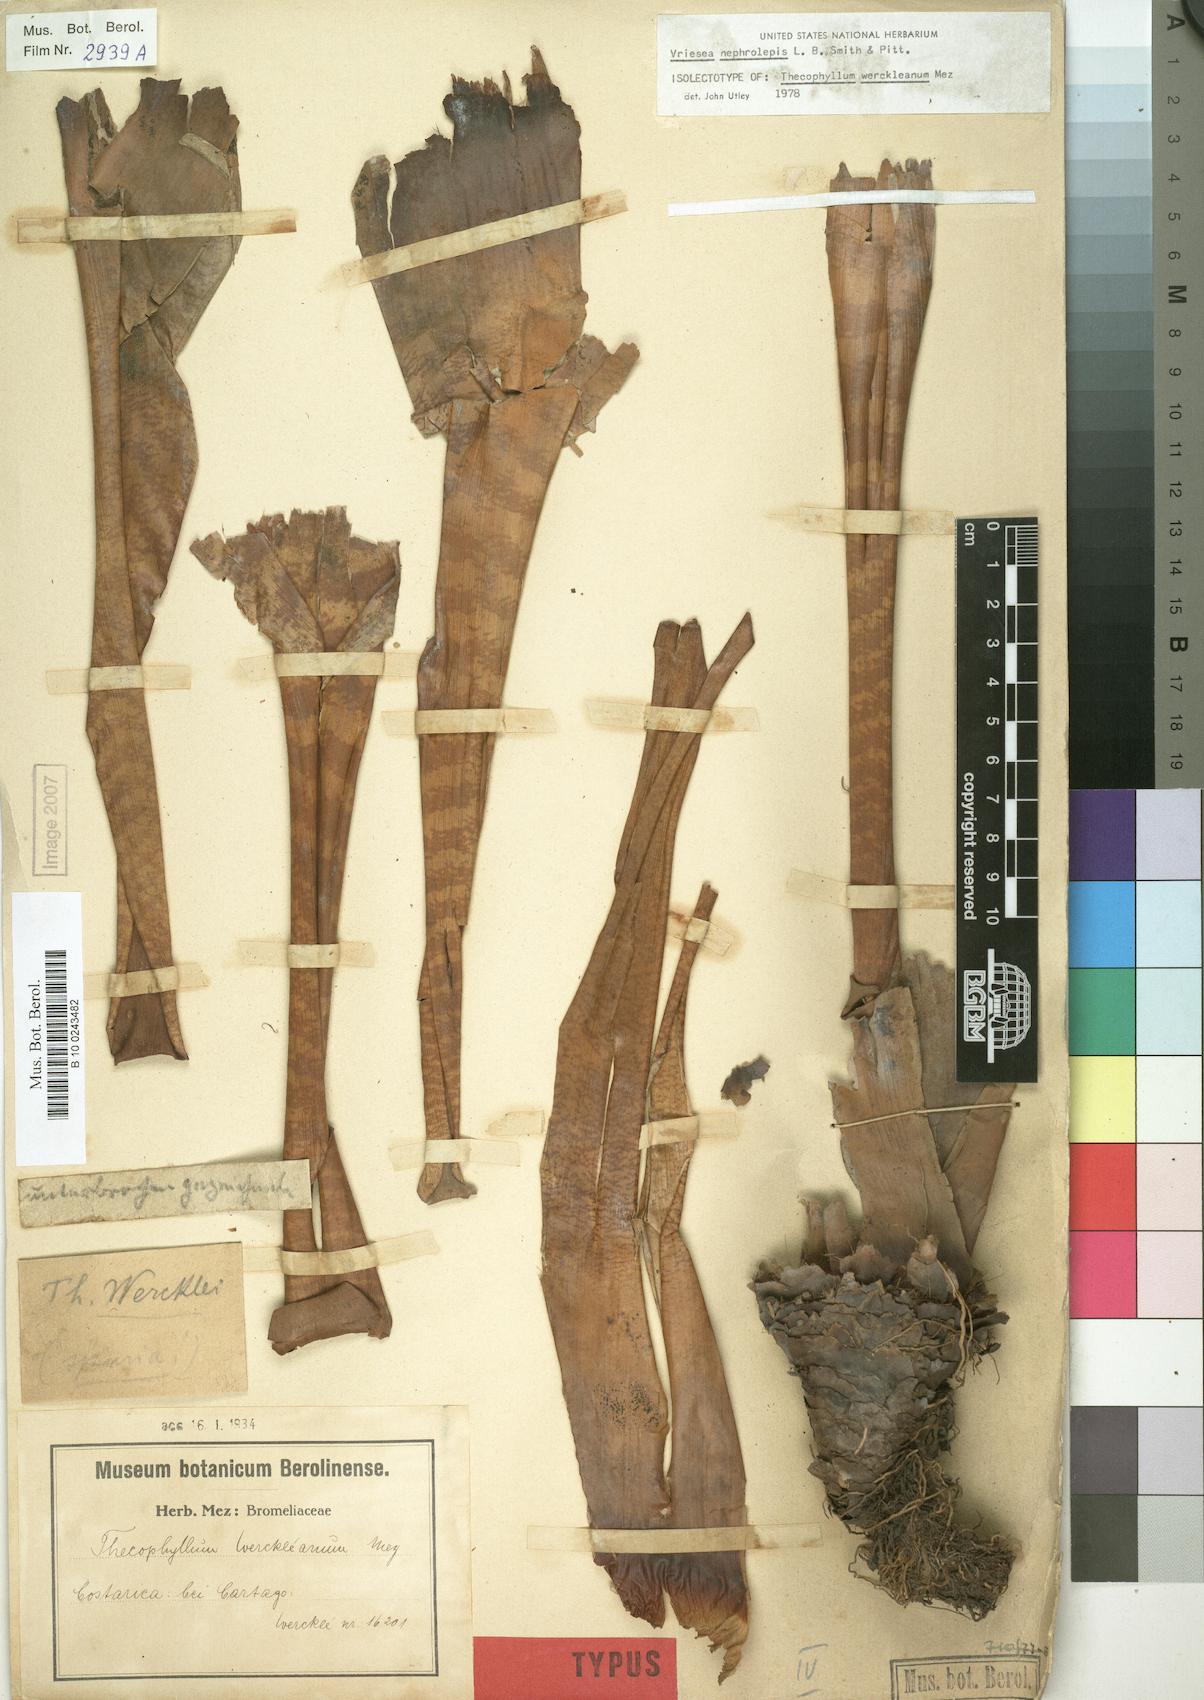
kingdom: Plantae
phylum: Tracheophyta
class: Liliopsida
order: Poales
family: Bromeliaceae
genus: Werauhia
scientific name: Werauhia montana
